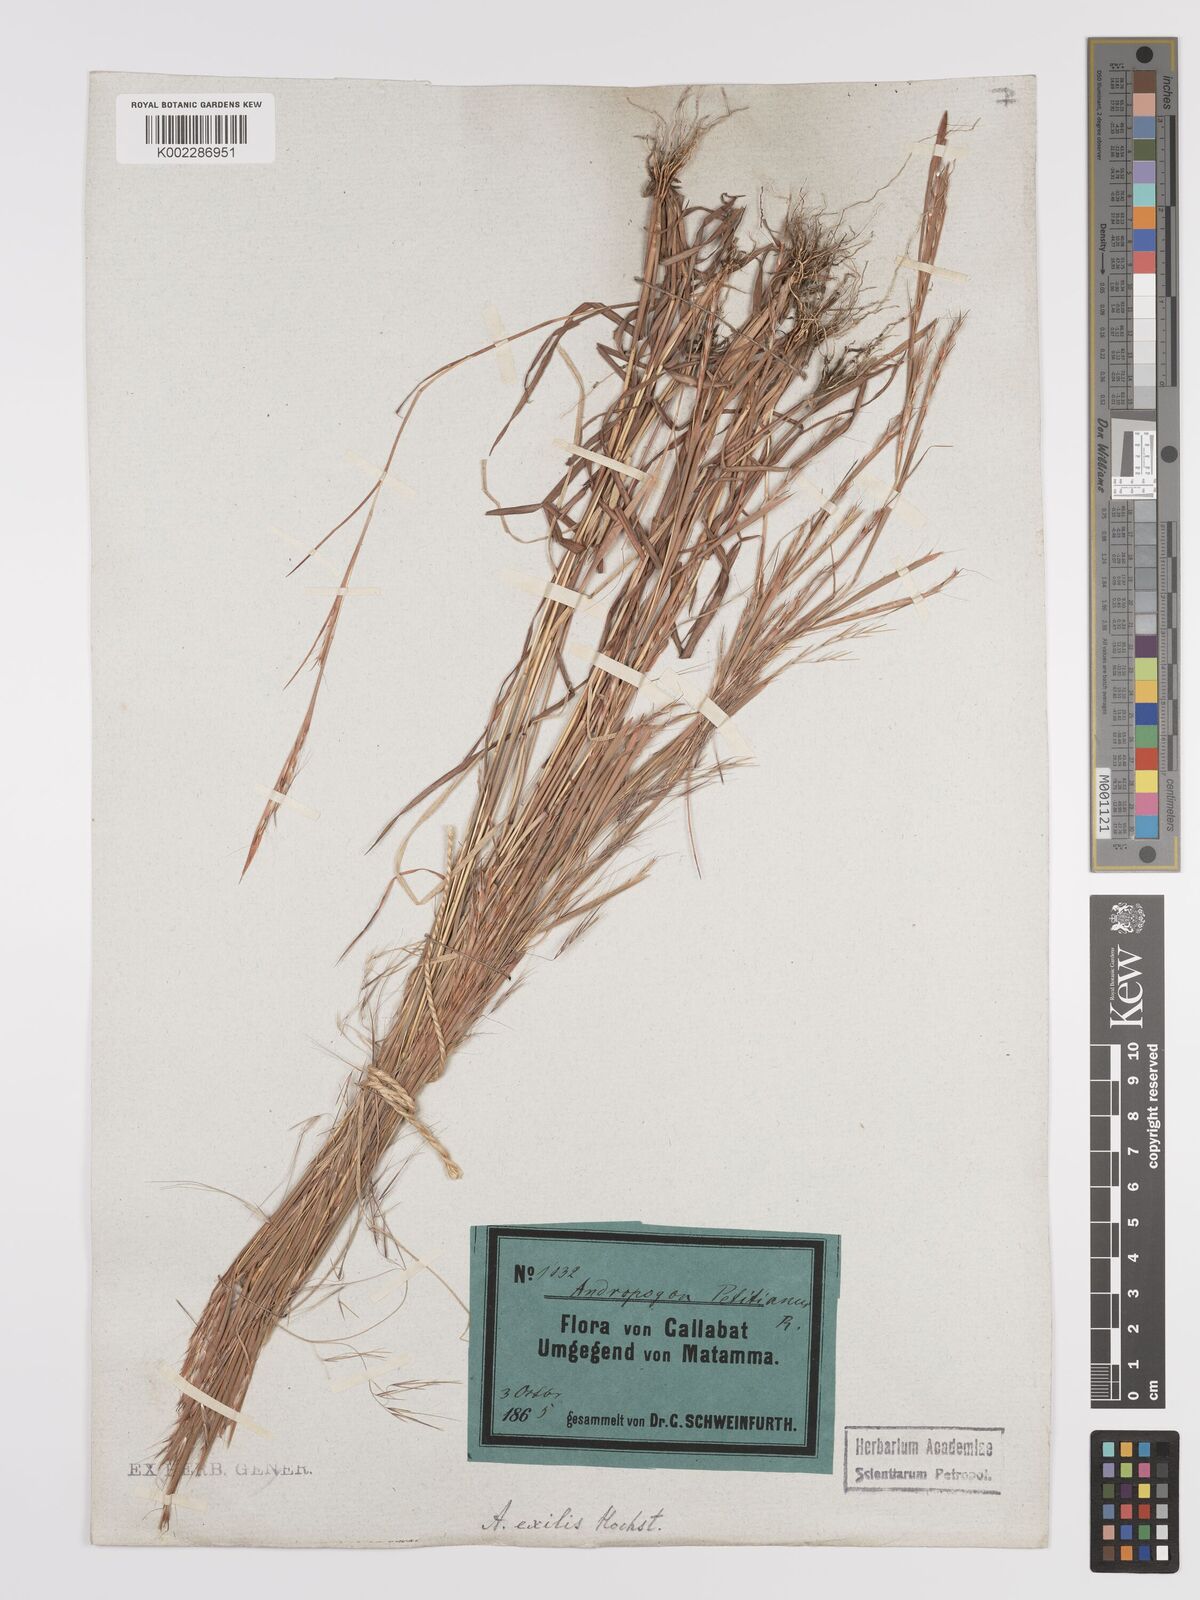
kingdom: Plantae
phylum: Tracheophyta
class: Liliopsida
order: Poales
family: Poaceae
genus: Schizachyrium
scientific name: Schizachyrium exile
